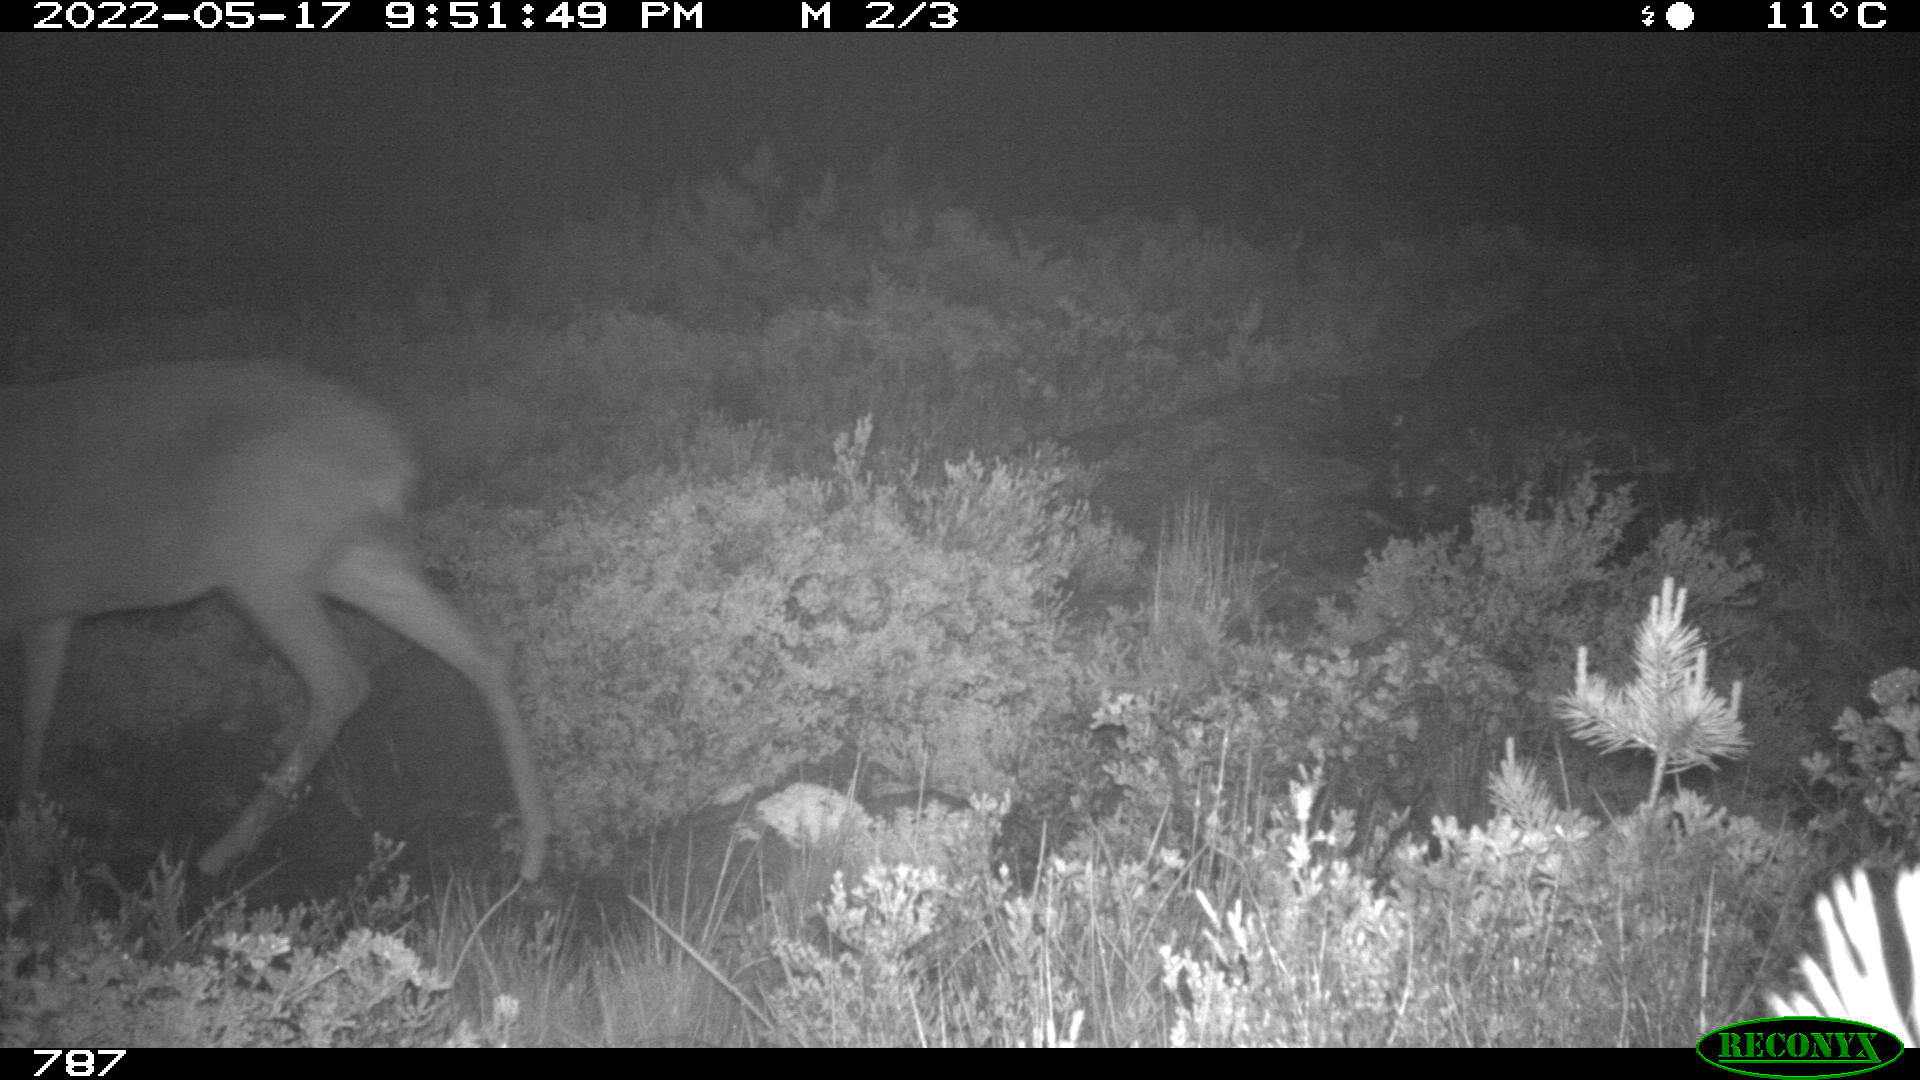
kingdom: Animalia
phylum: Chordata
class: Mammalia
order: Artiodactyla
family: Cervidae
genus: Capreolus
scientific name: Capreolus capreolus
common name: Western roe deer
